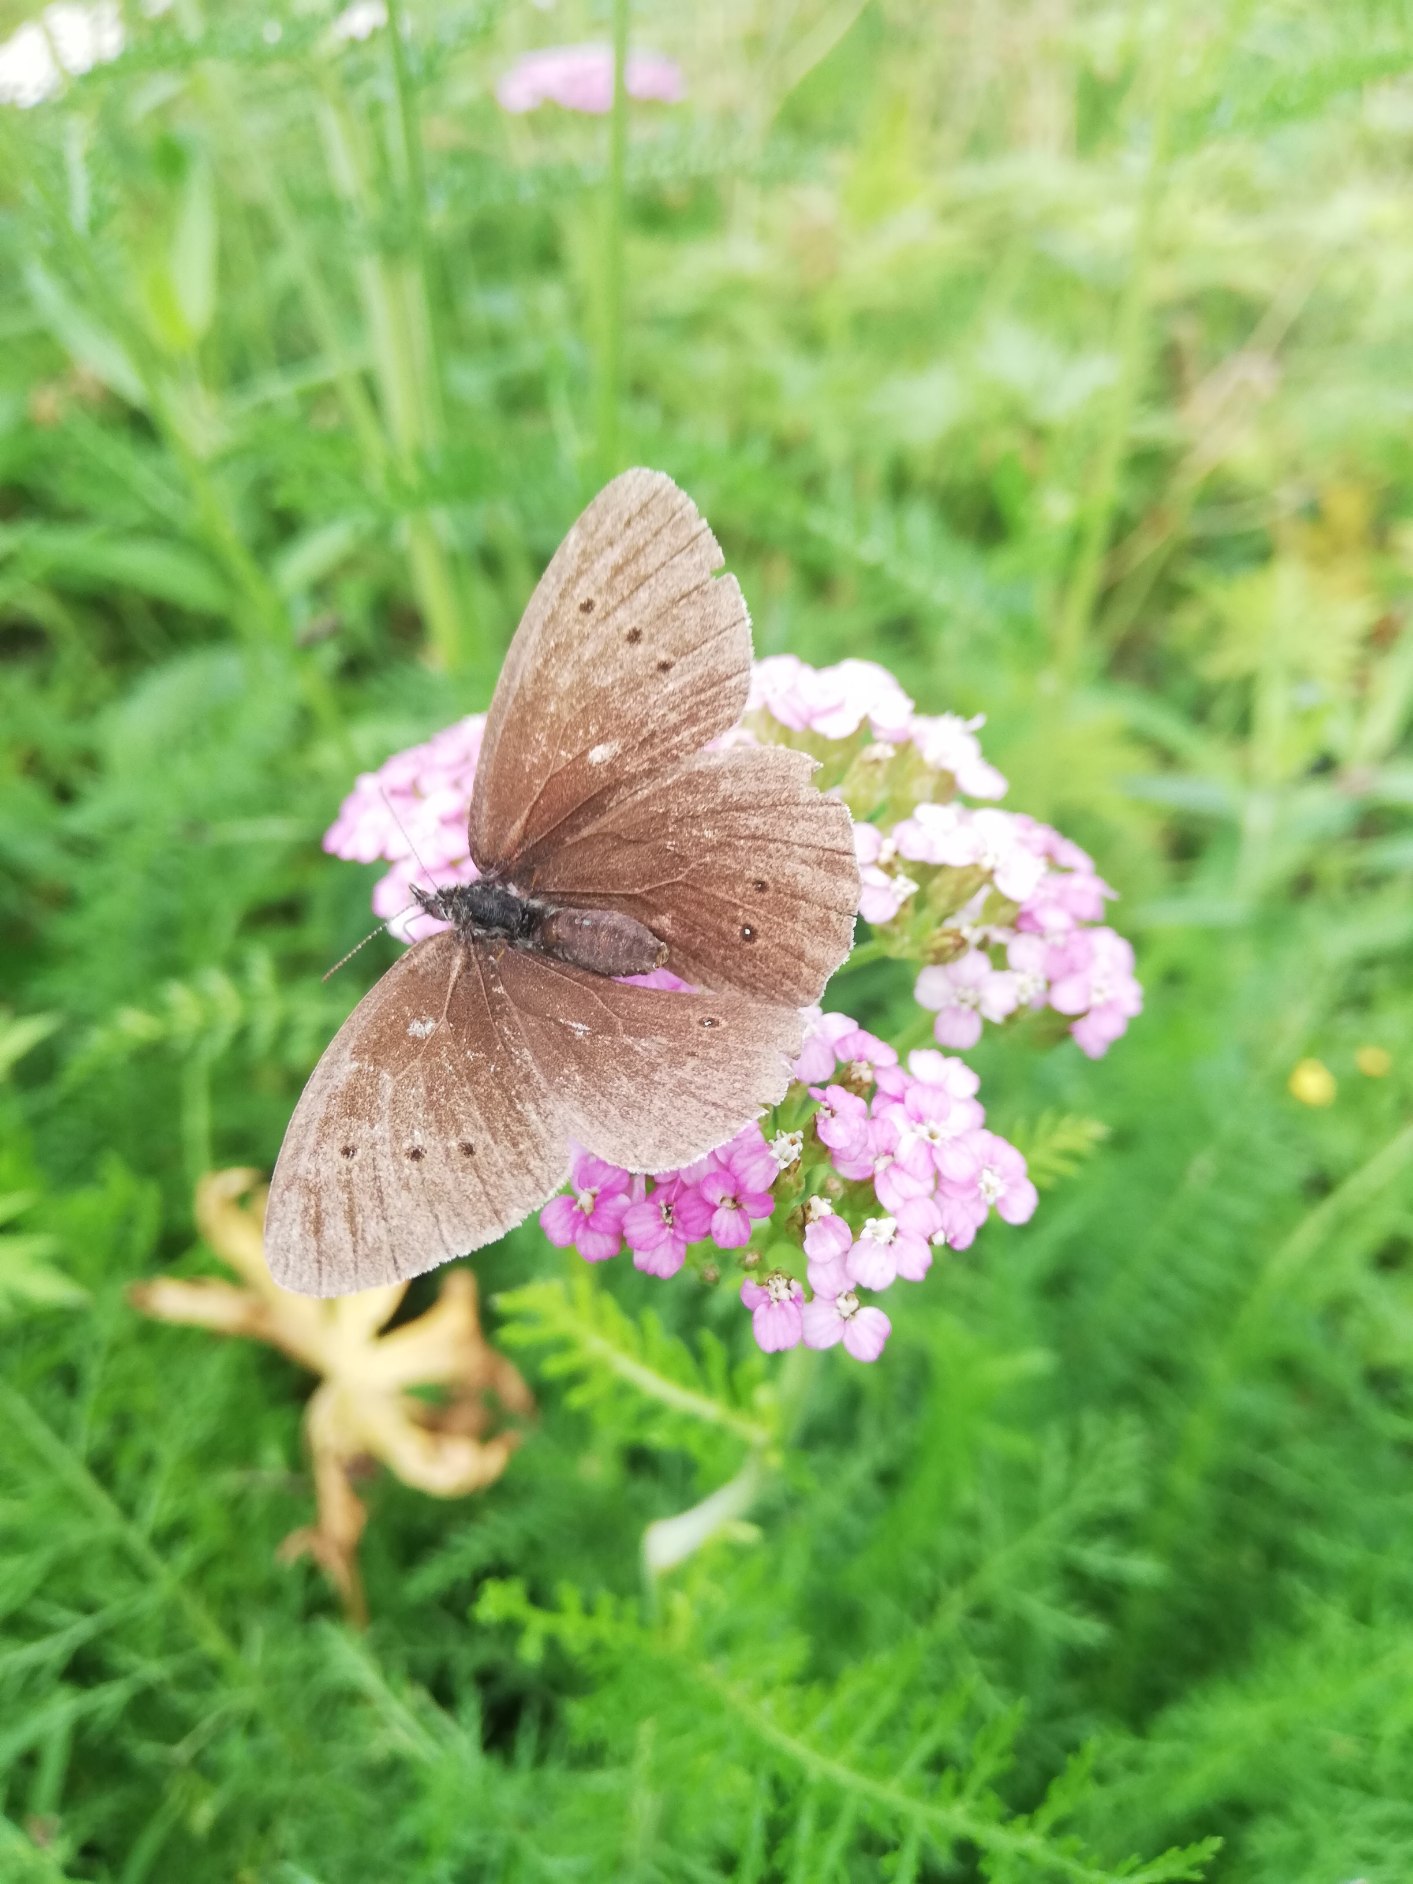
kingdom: Animalia
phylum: Arthropoda
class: Insecta
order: Lepidoptera
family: Nymphalidae
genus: Aphantopus
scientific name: Aphantopus hyperantus
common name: Engrandøje
